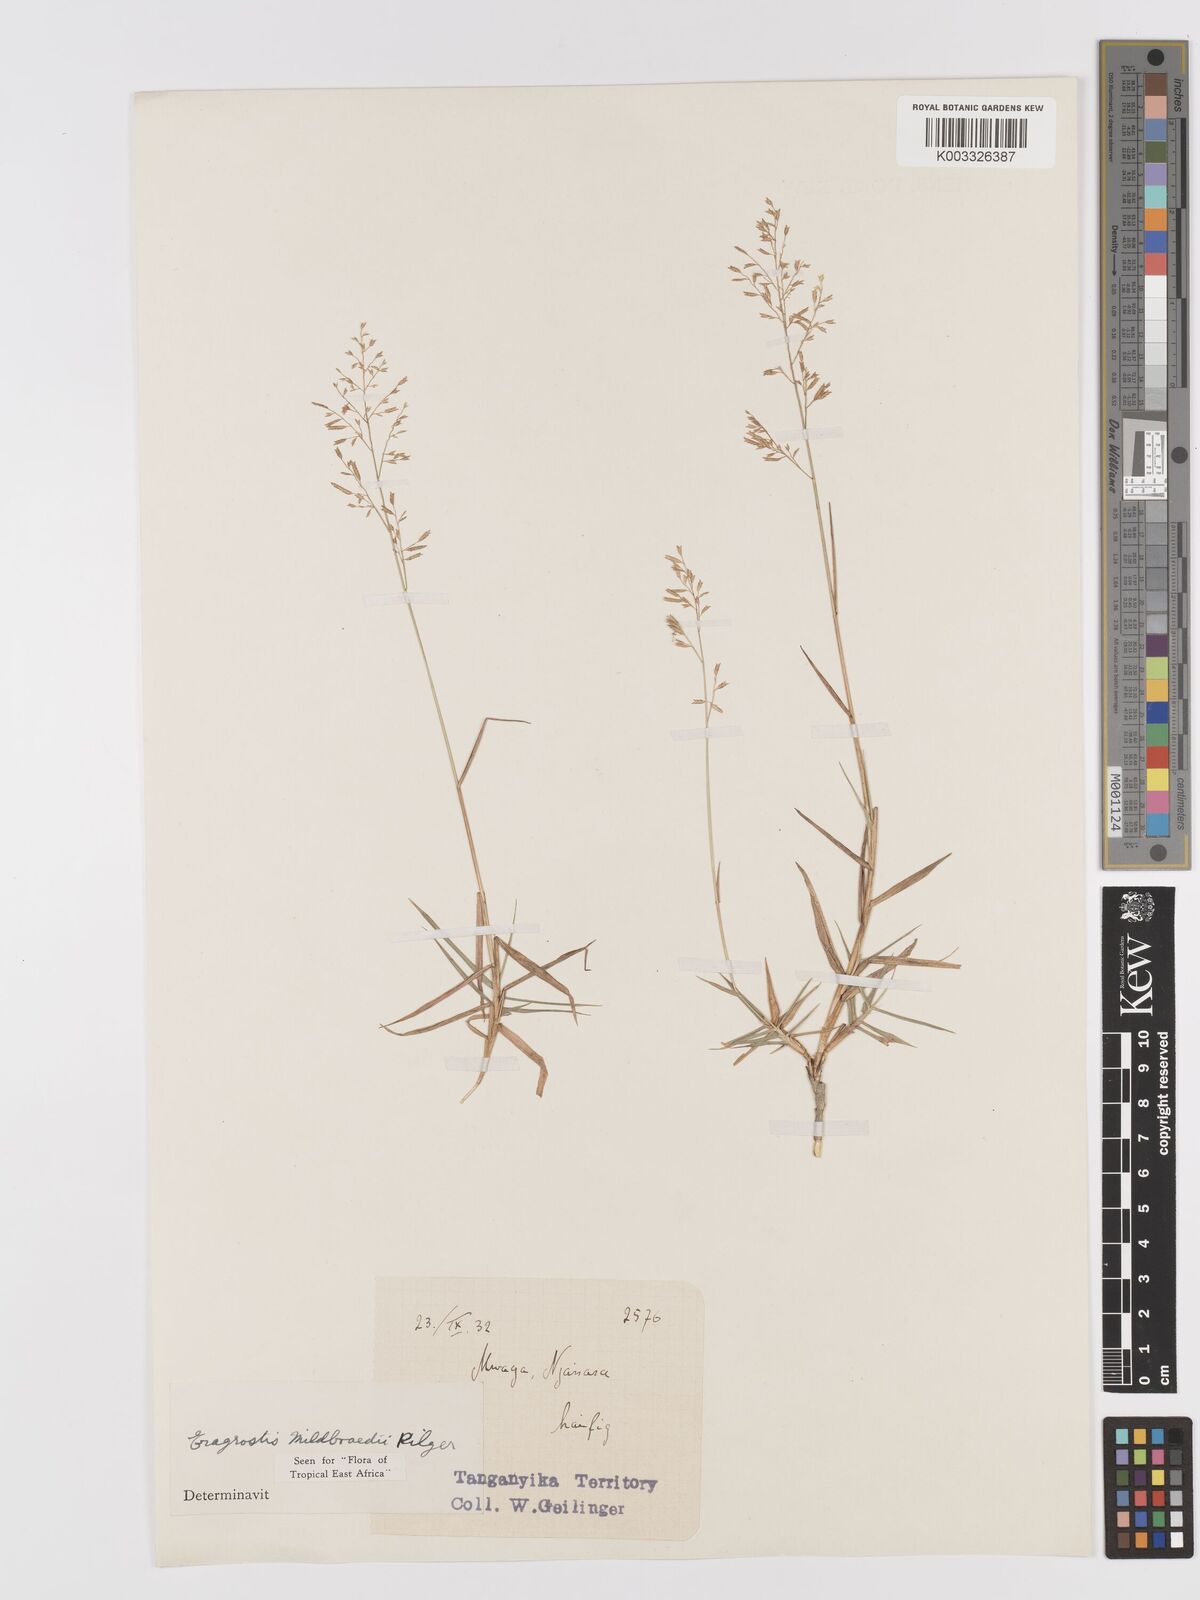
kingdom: Plantae
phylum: Tracheophyta
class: Liliopsida
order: Poales
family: Poaceae
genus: Eragrostis
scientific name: Eragrostis mildbraedii
